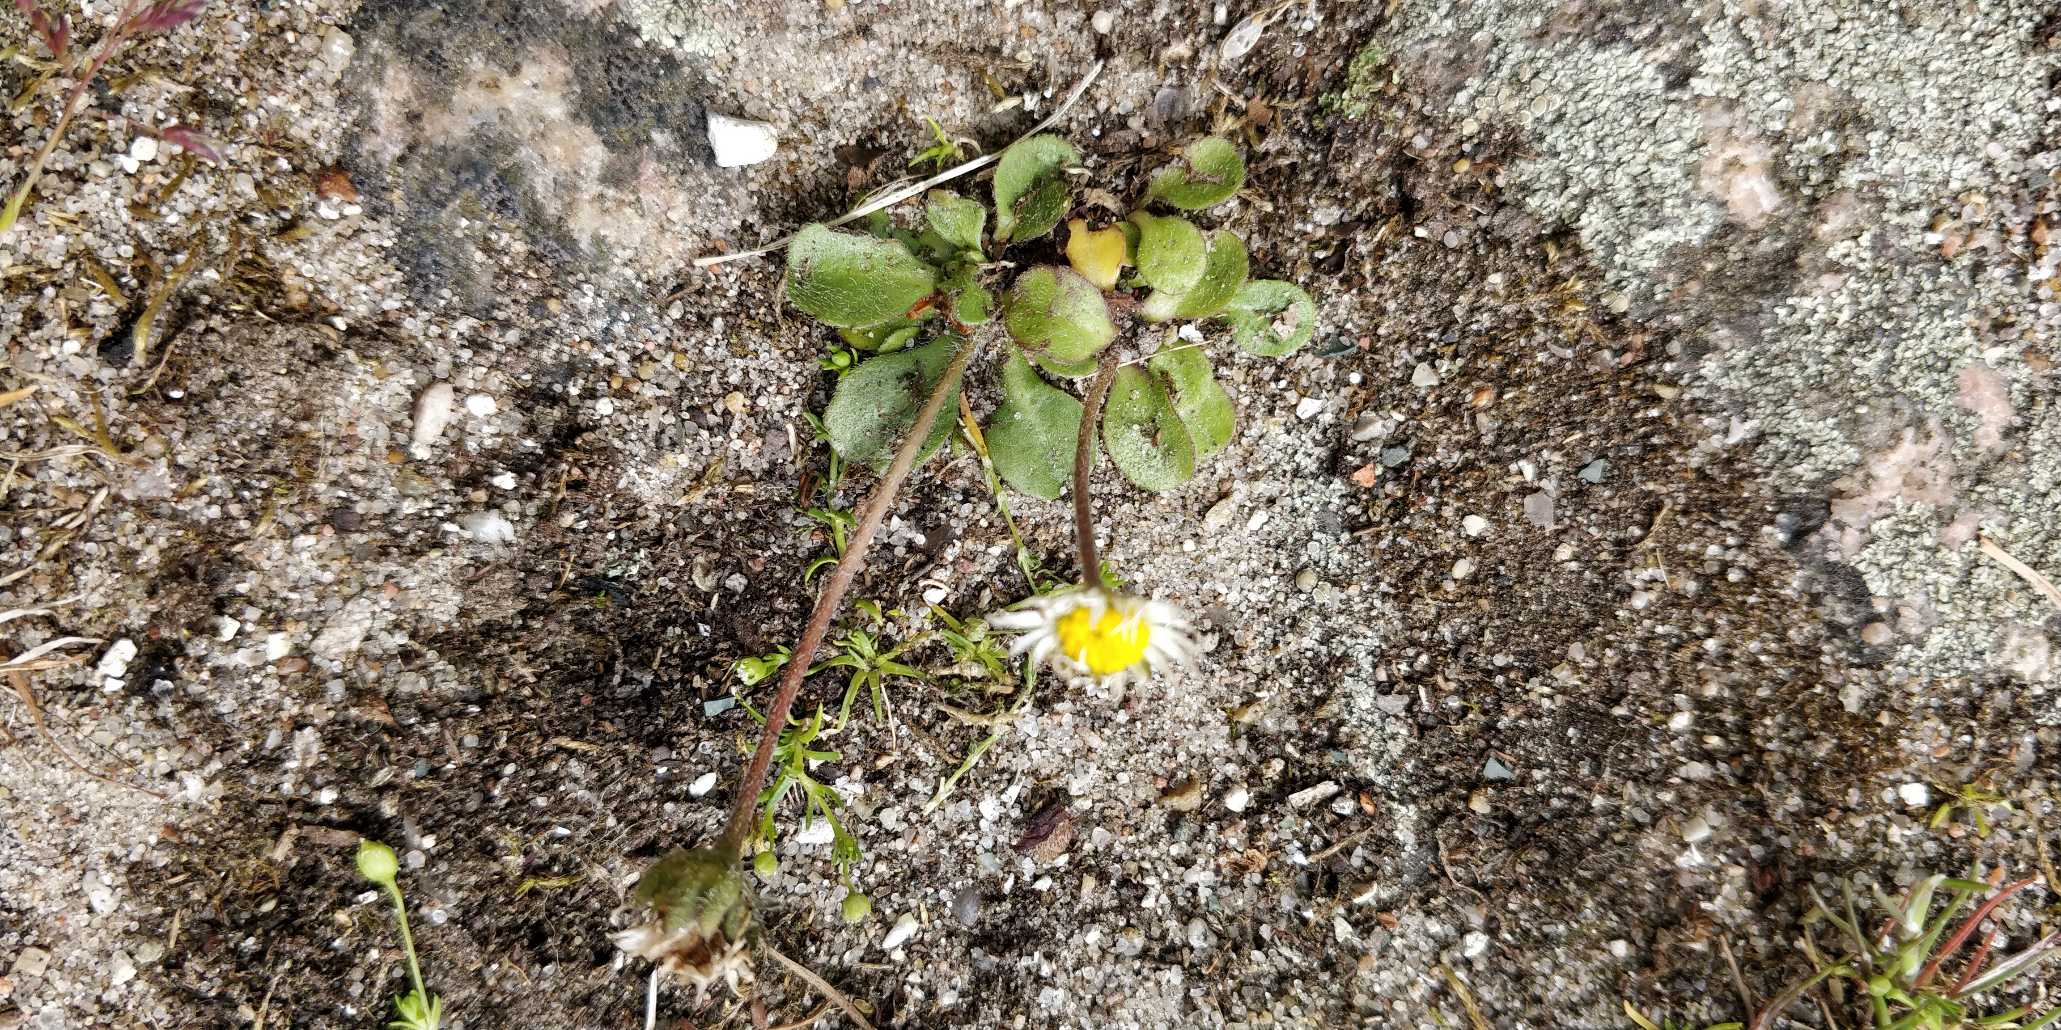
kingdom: Plantae
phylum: Tracheophyta
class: Magnoliopsida
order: Asterales
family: Asteraceae
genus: Bellis
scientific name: Bellis perennis
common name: Tusindfryd
